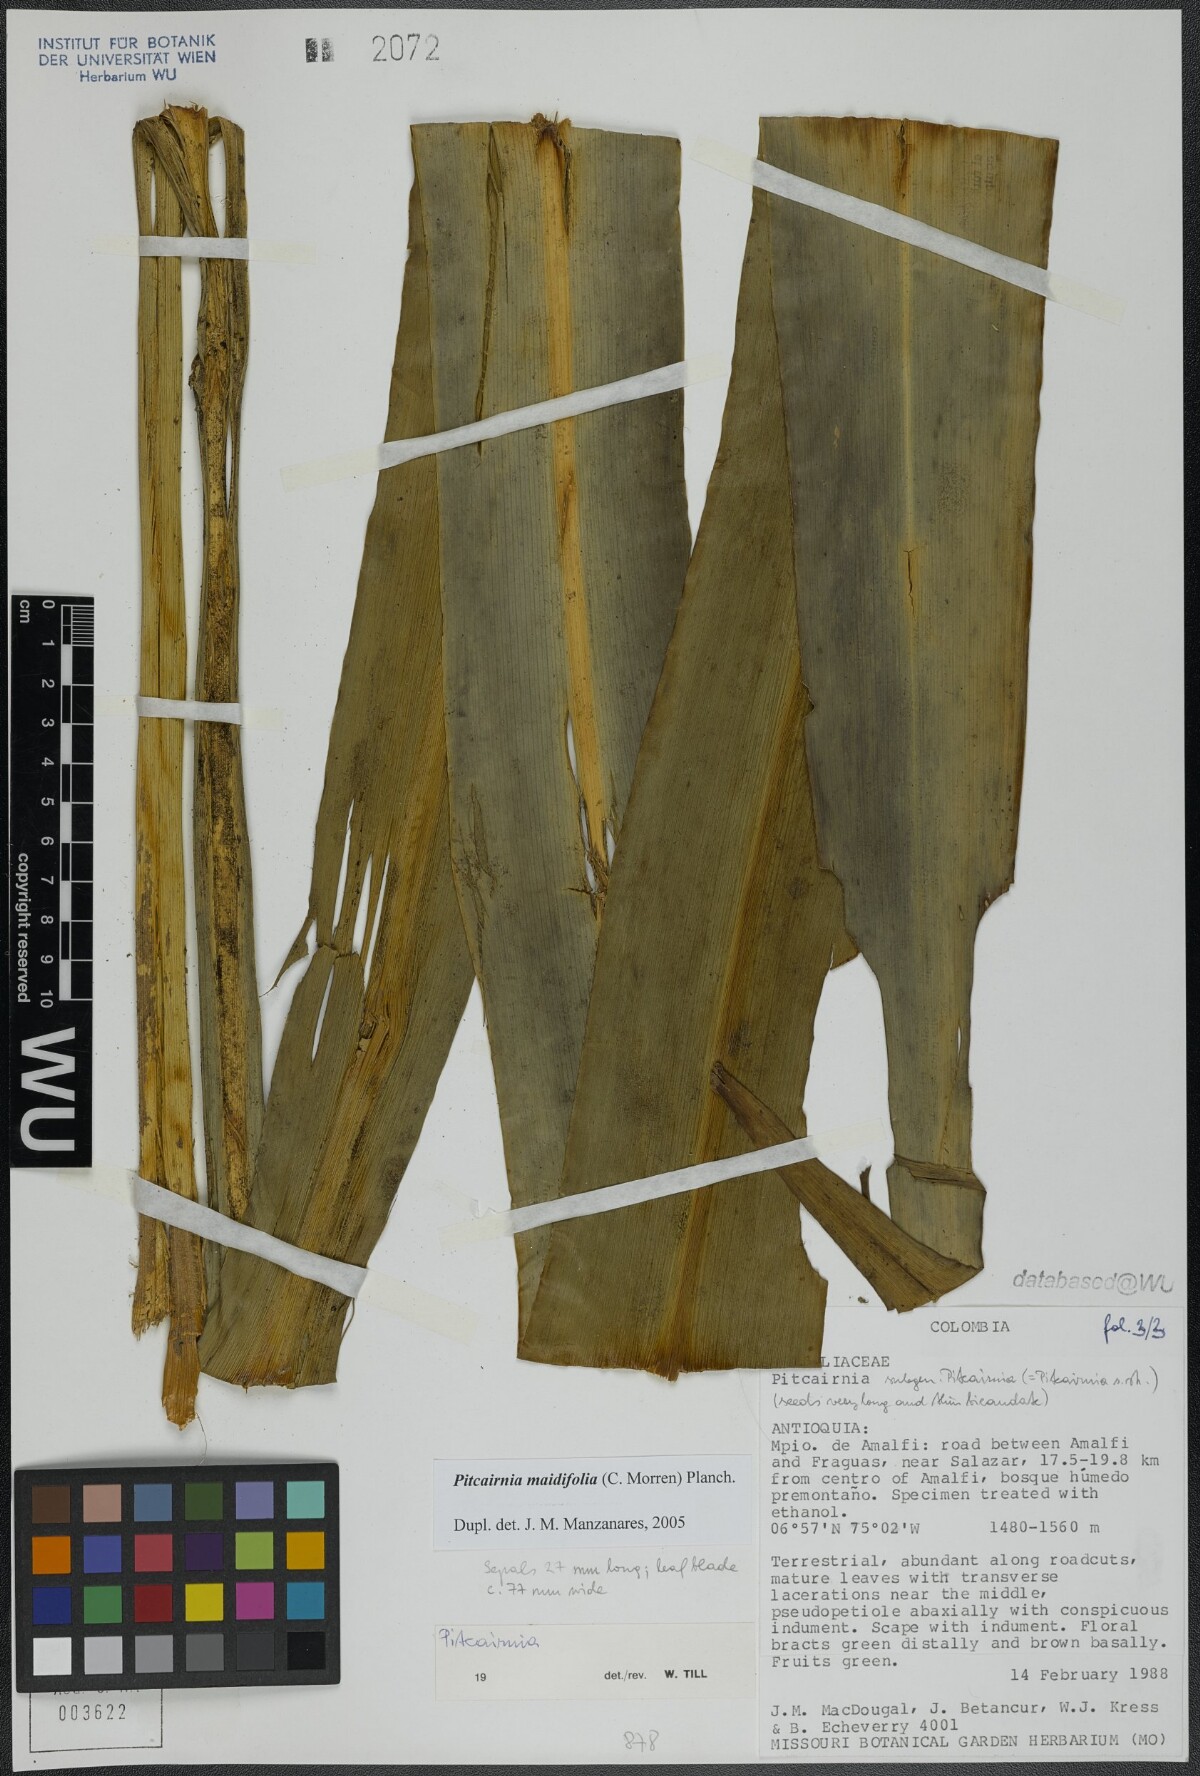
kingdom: Plantae
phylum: Tracheophyta
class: Liliopsida
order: Poales
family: Bromeliaceae
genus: Pitcairnia
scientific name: Pitcairnia maidifolia
